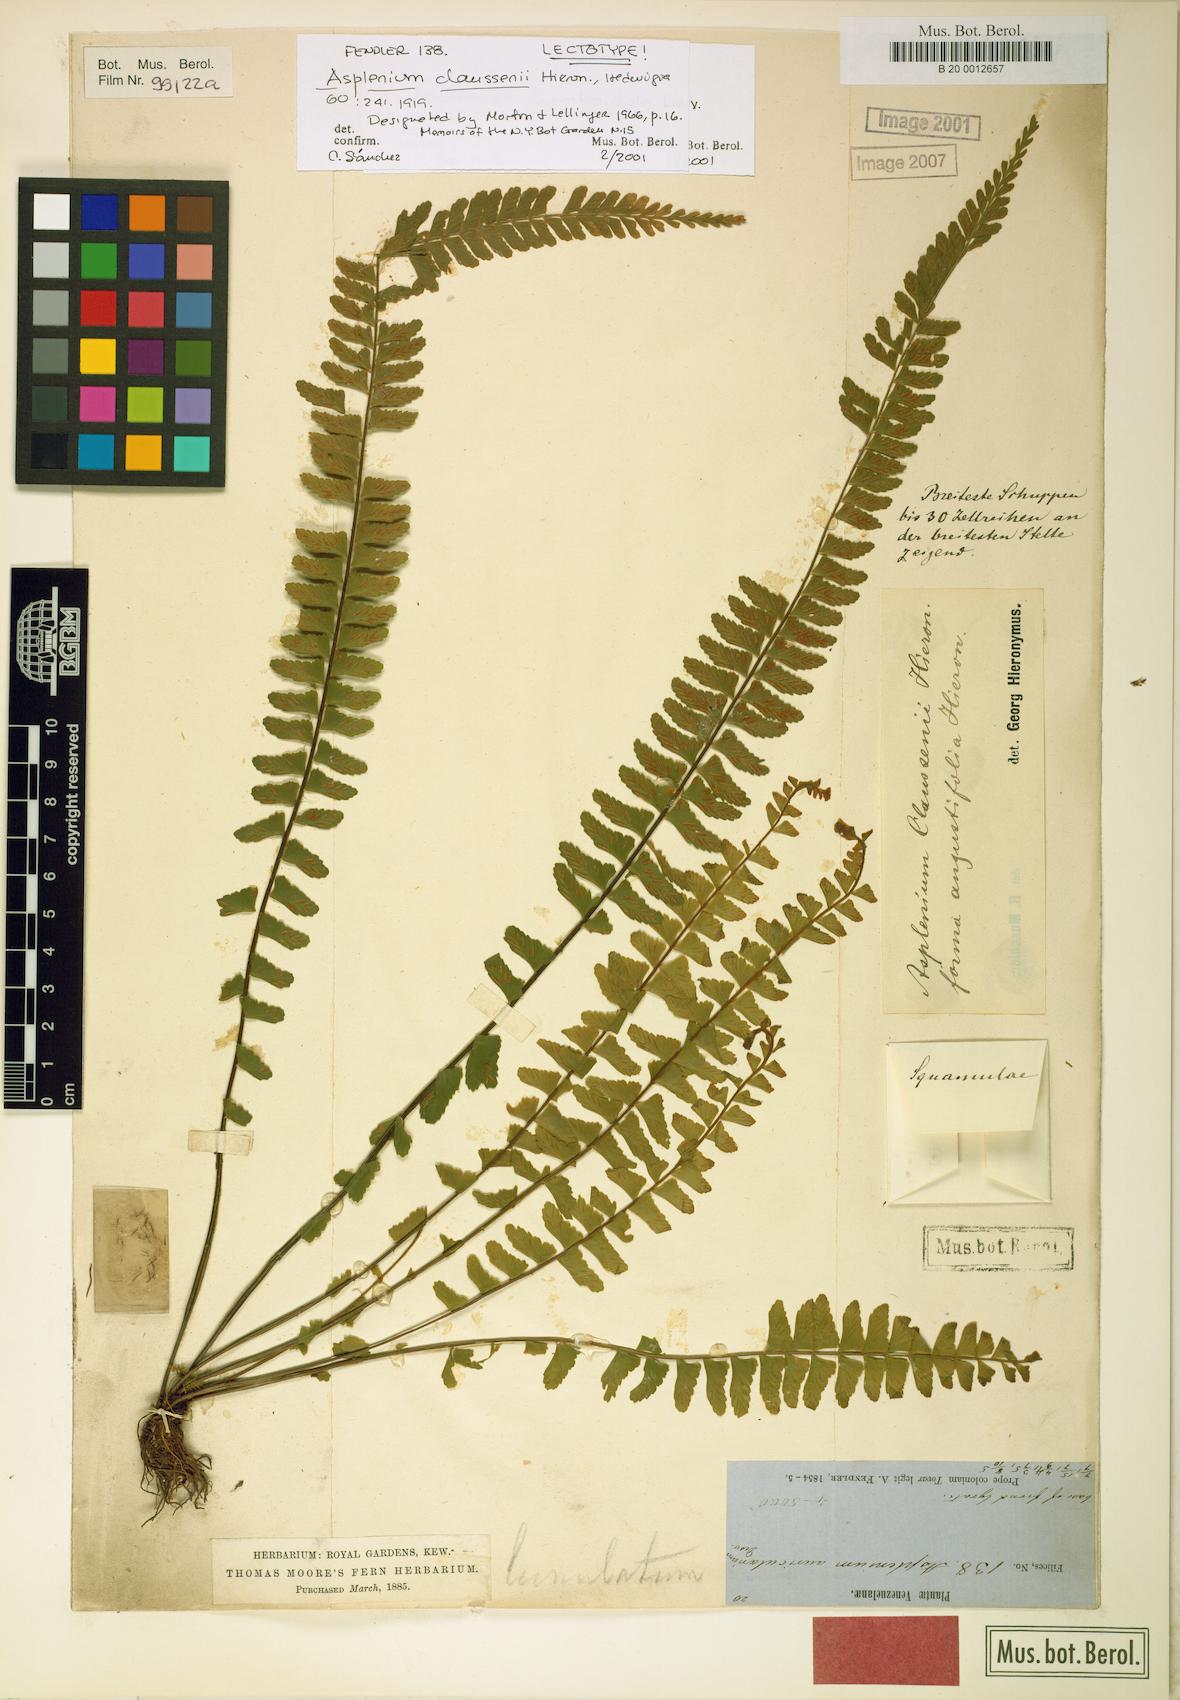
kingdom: Plantae
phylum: Tracheophyta
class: Polypodiopsida
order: Polypodiales
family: Aspleniaceae
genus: Asplenium
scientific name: Asplenium claussenii
